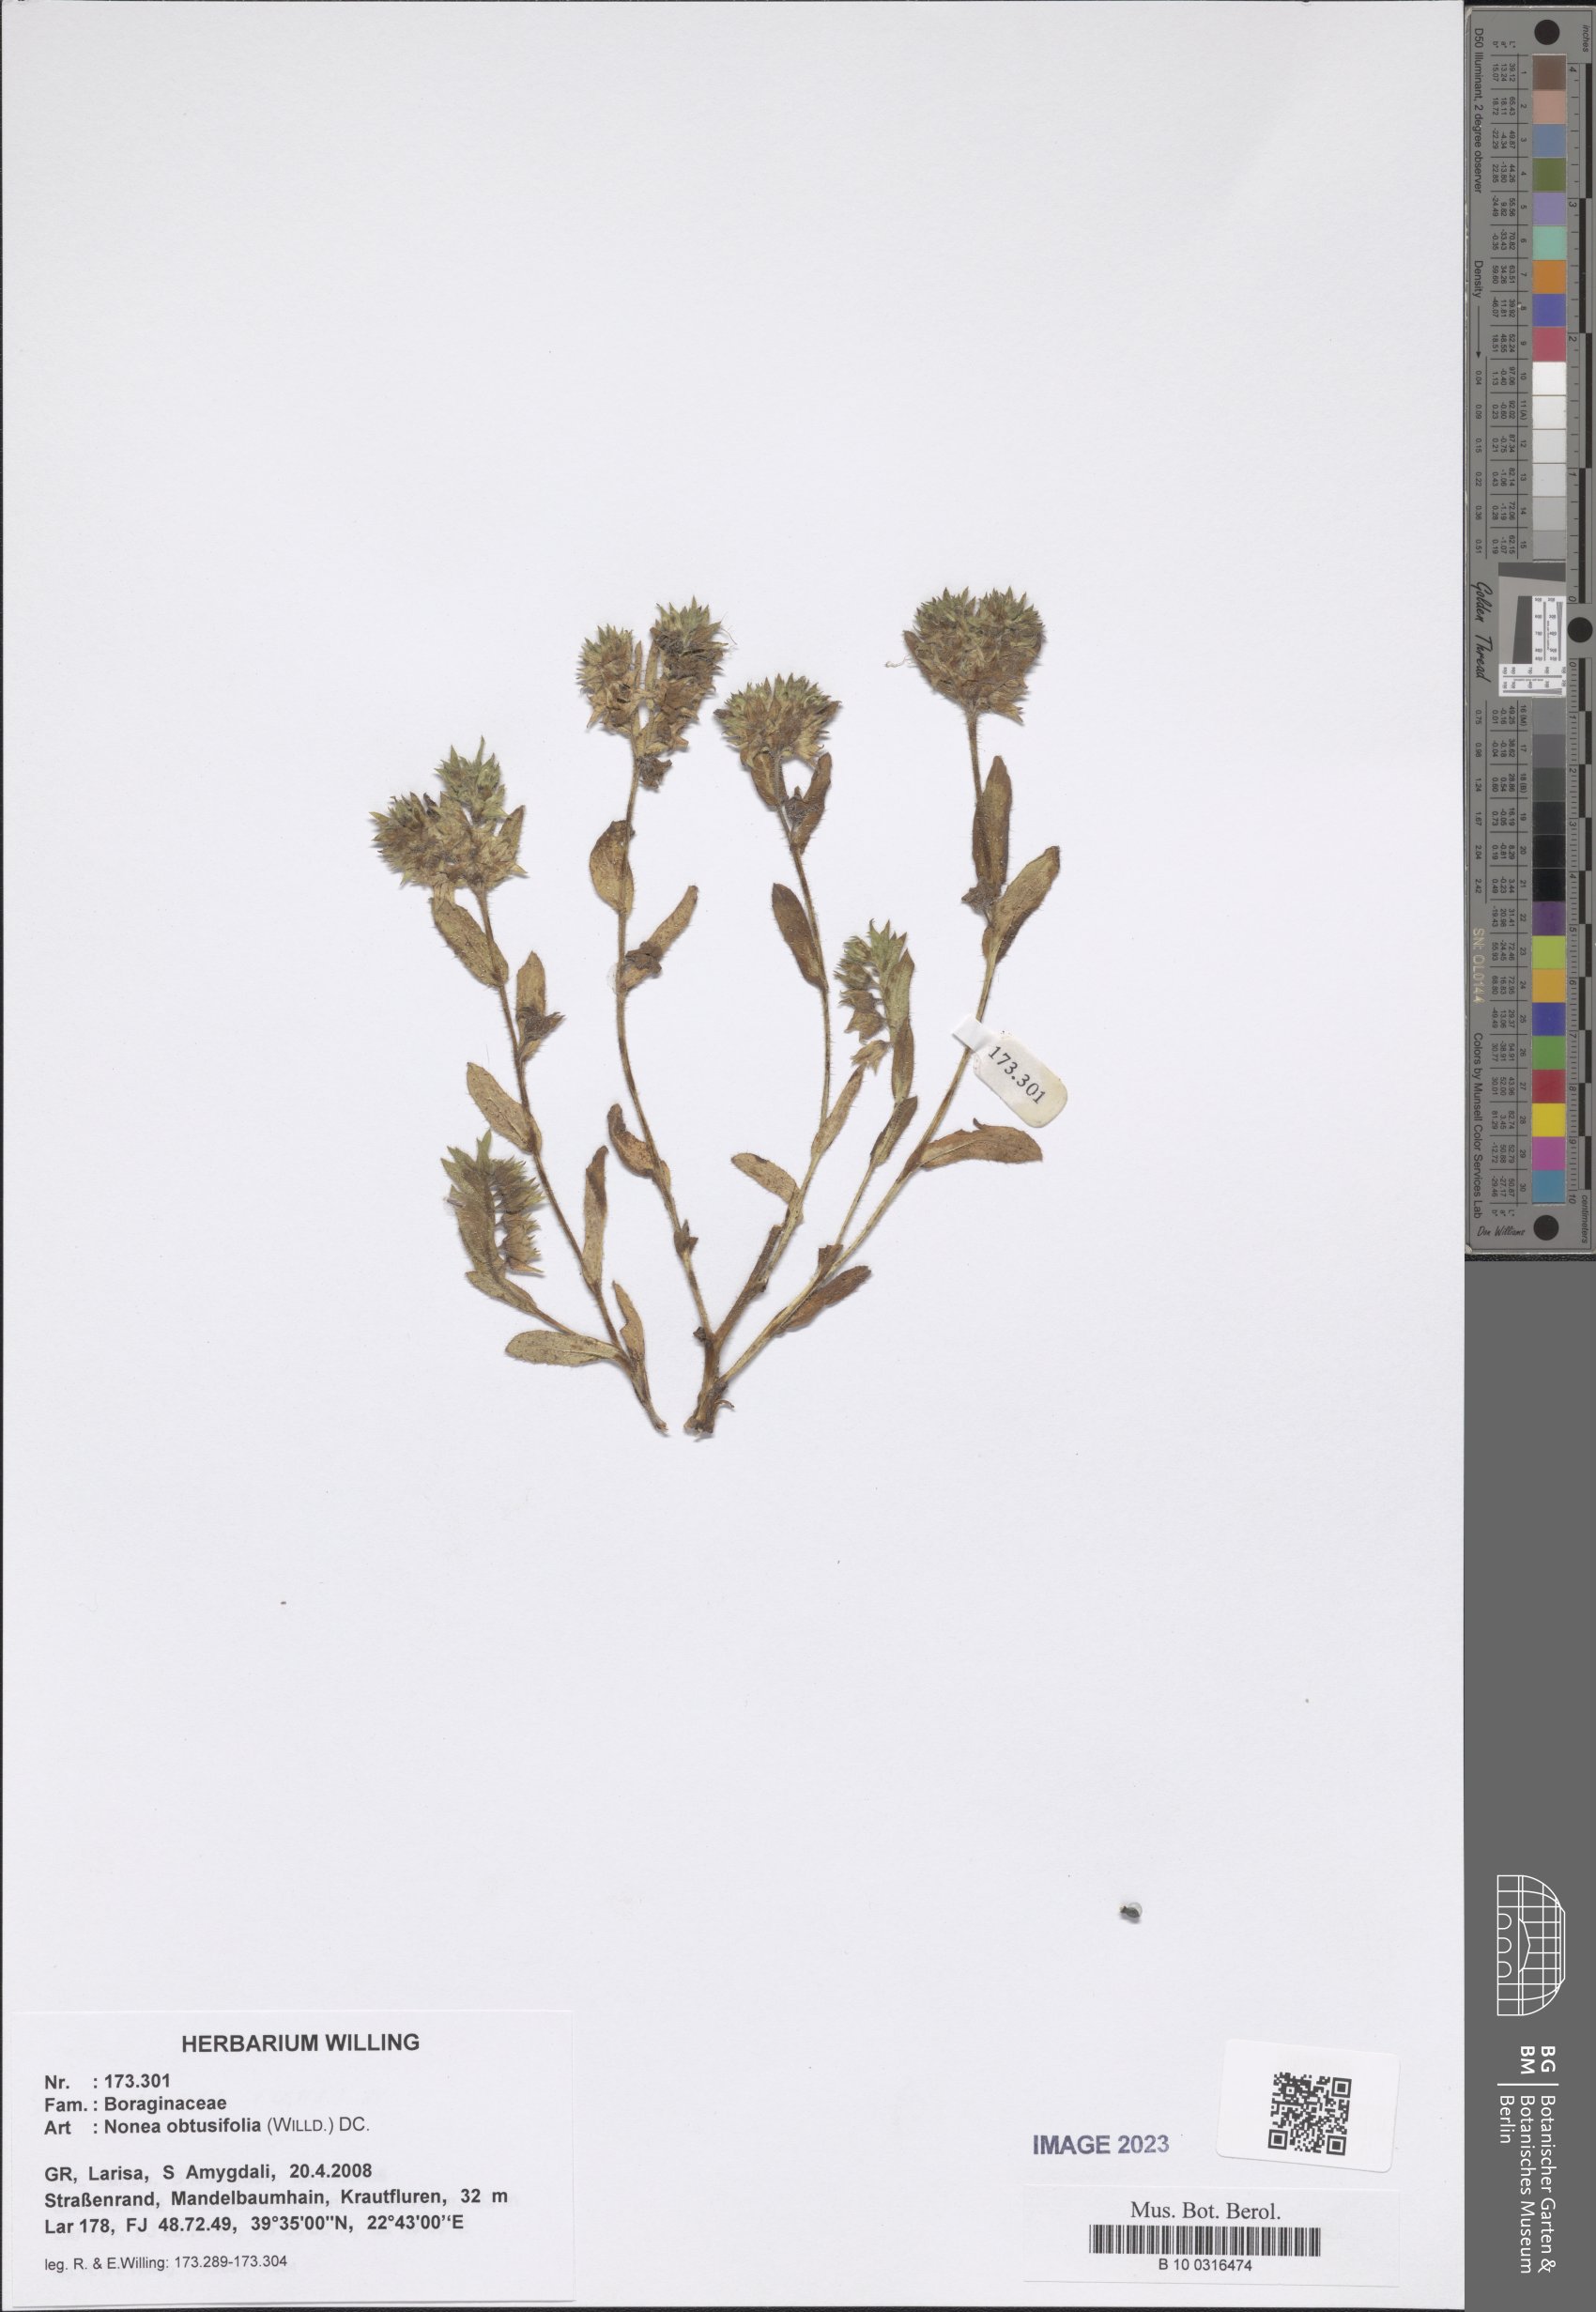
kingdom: Plantae
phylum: Tracheophyta
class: Magnoliopsida
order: Boraginales
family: Boraginaceae
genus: Melanortocarya
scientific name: Melanortocarya obtusifolia
